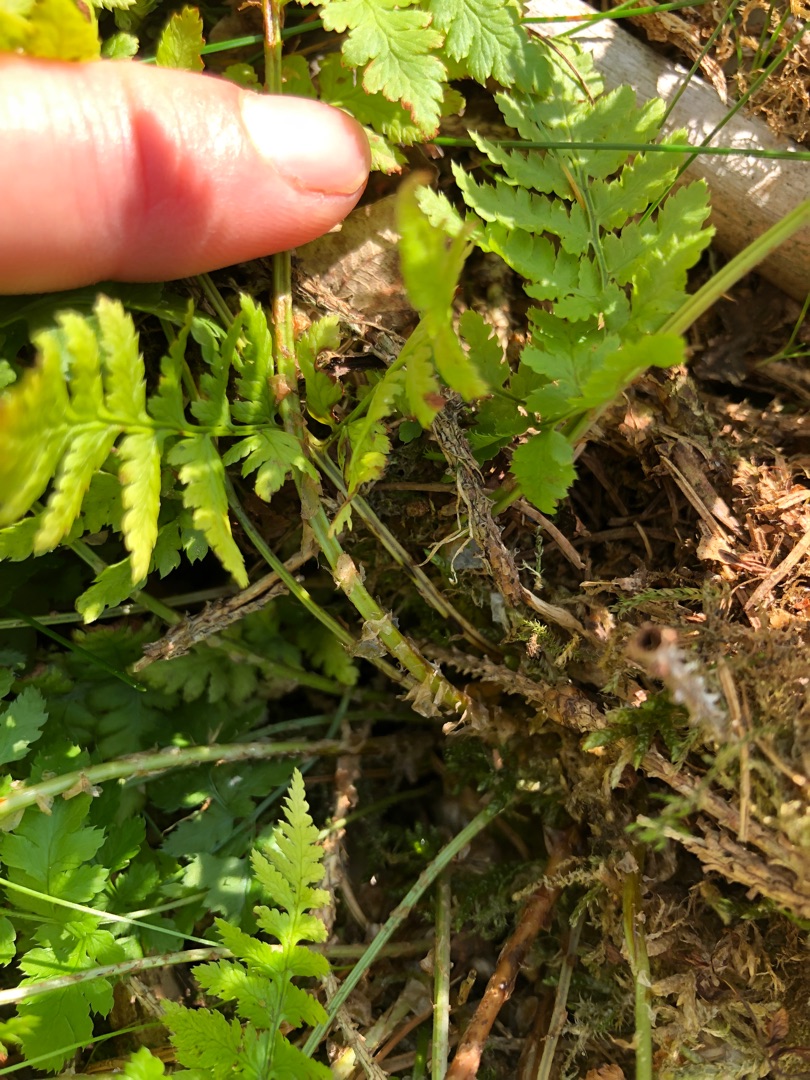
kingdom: Plantae
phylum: Tracheophyta
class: Polypodiopsida
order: Polypodiales
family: Dryopteridaceae
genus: Dryopteris
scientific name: Dryopteris carthusiana
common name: Smalbladet mangeløv
